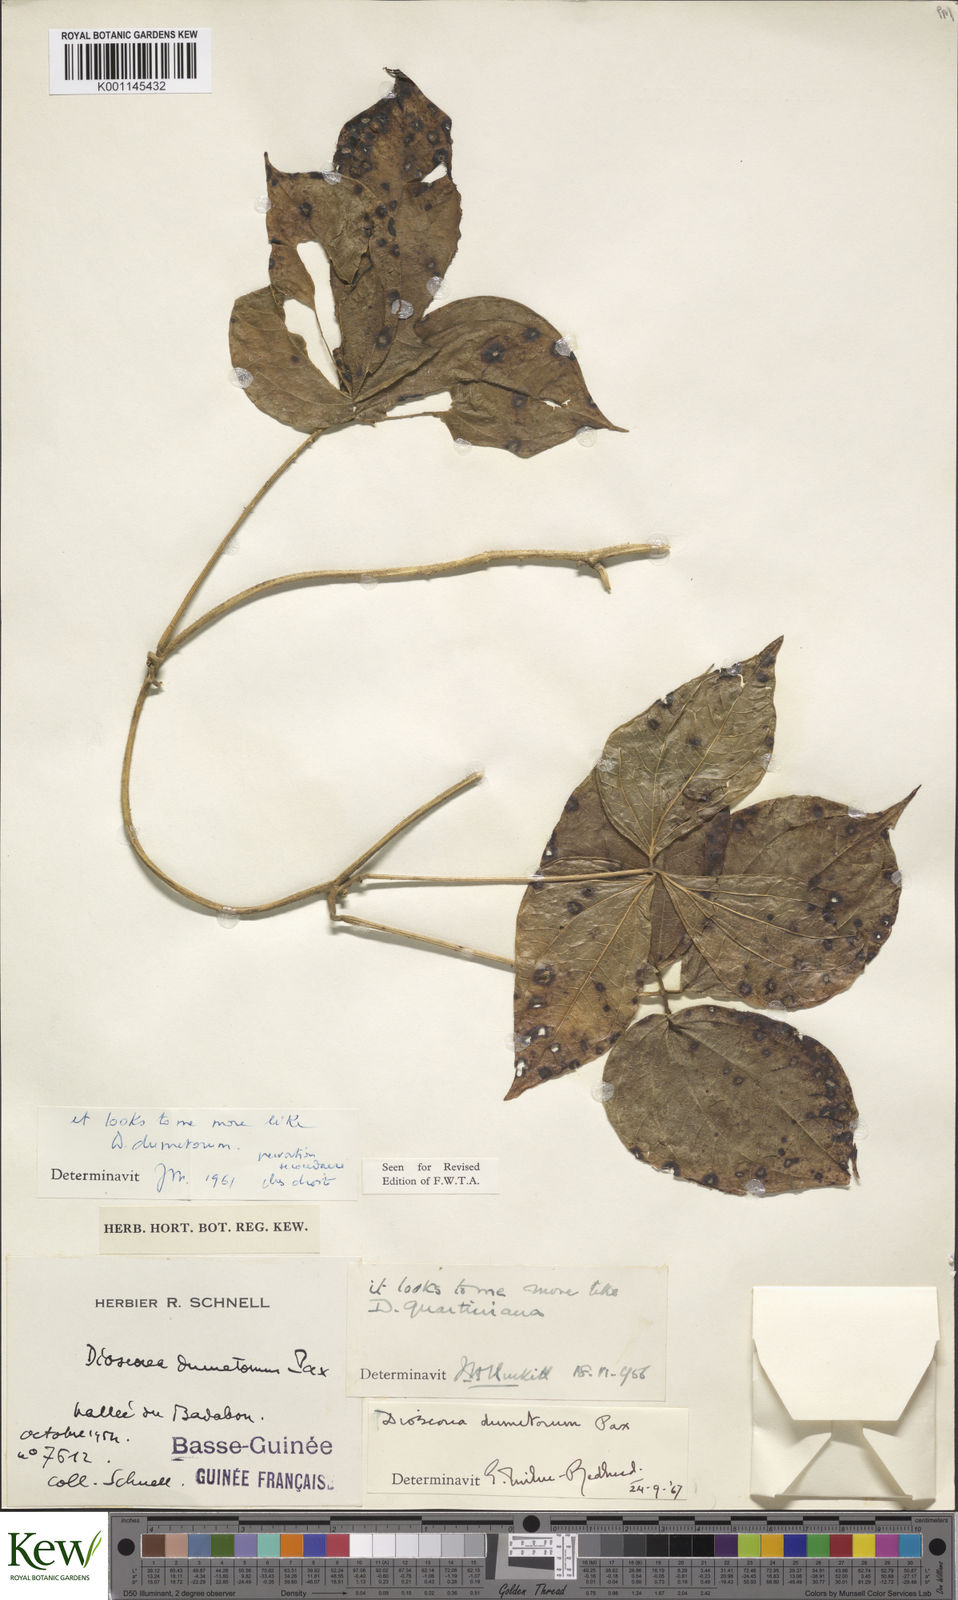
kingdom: Plantae
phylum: Tracheophyta
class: Liliopsida
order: Dioscoreales
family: Dioscoreaceae
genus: Dioscorea
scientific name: Dioscorea dumetorum
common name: African bitter yam
